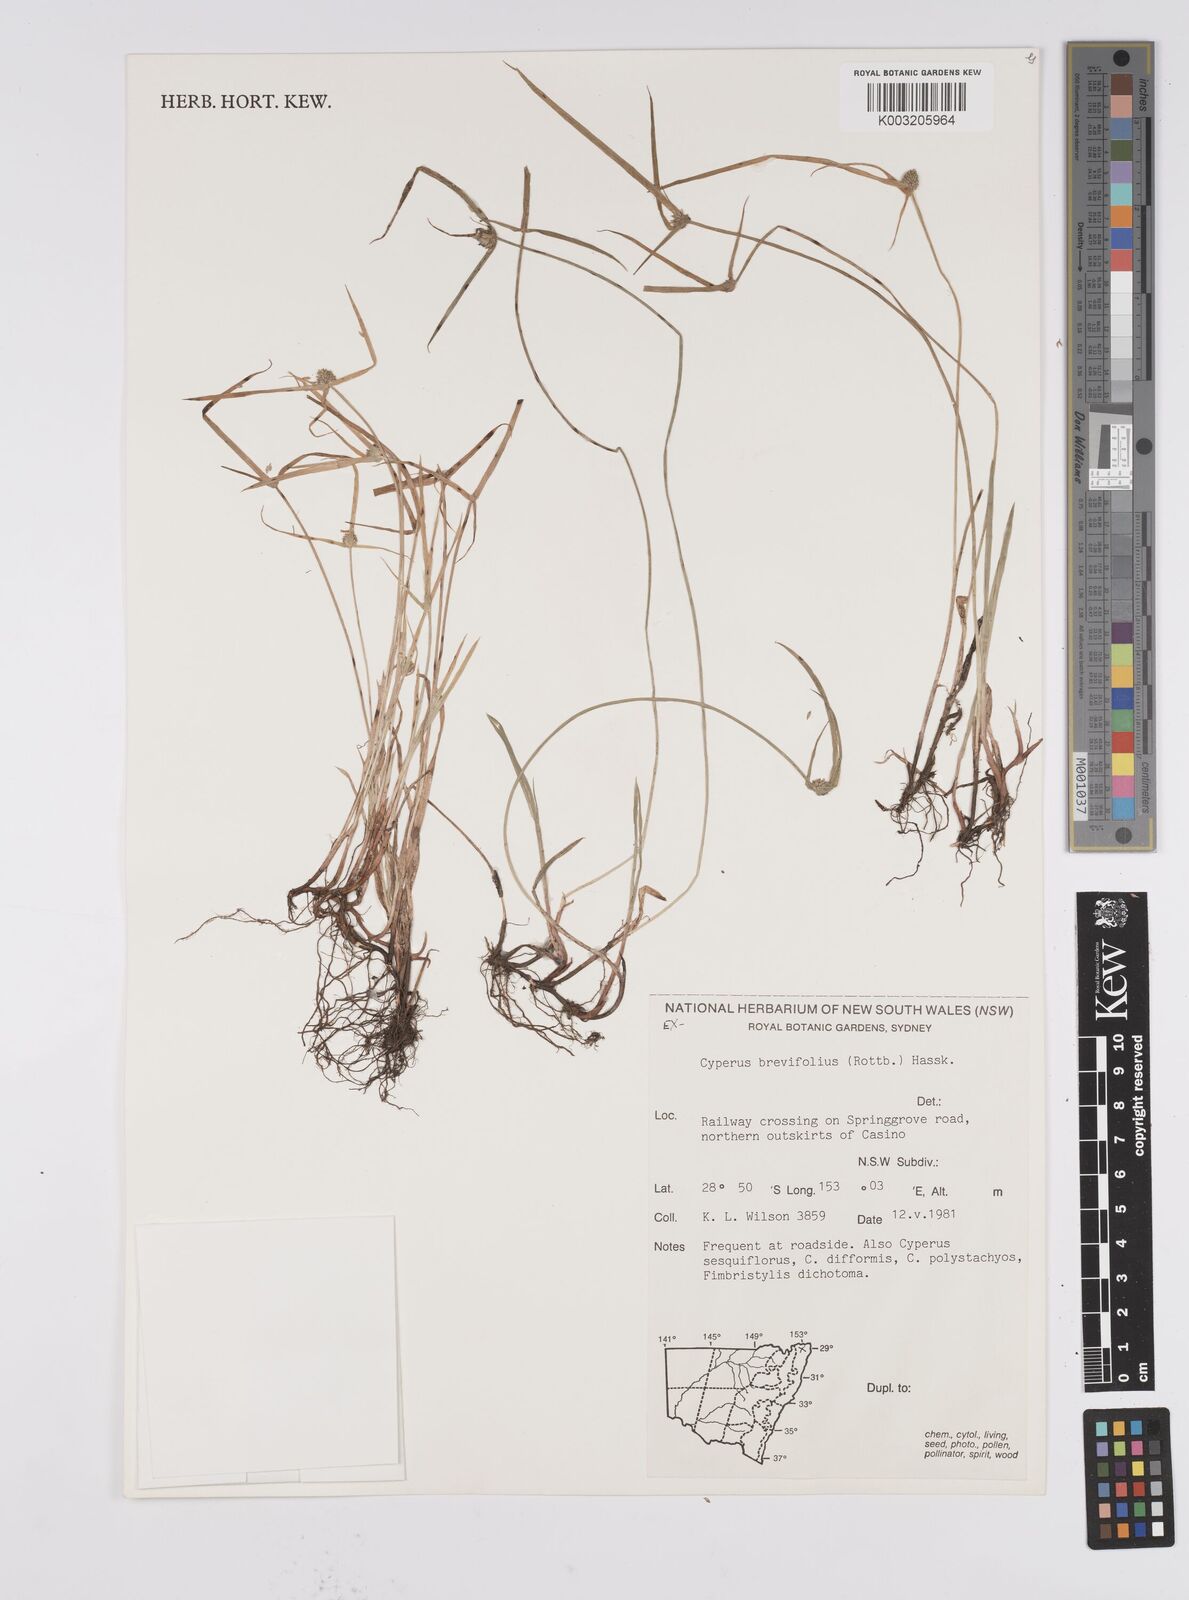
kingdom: Plantae
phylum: Tracheophyta
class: Liliopsida
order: Poales
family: Cyperaceae
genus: Cyperus
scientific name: Cyperus brevifolius
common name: Globe kyllinga
